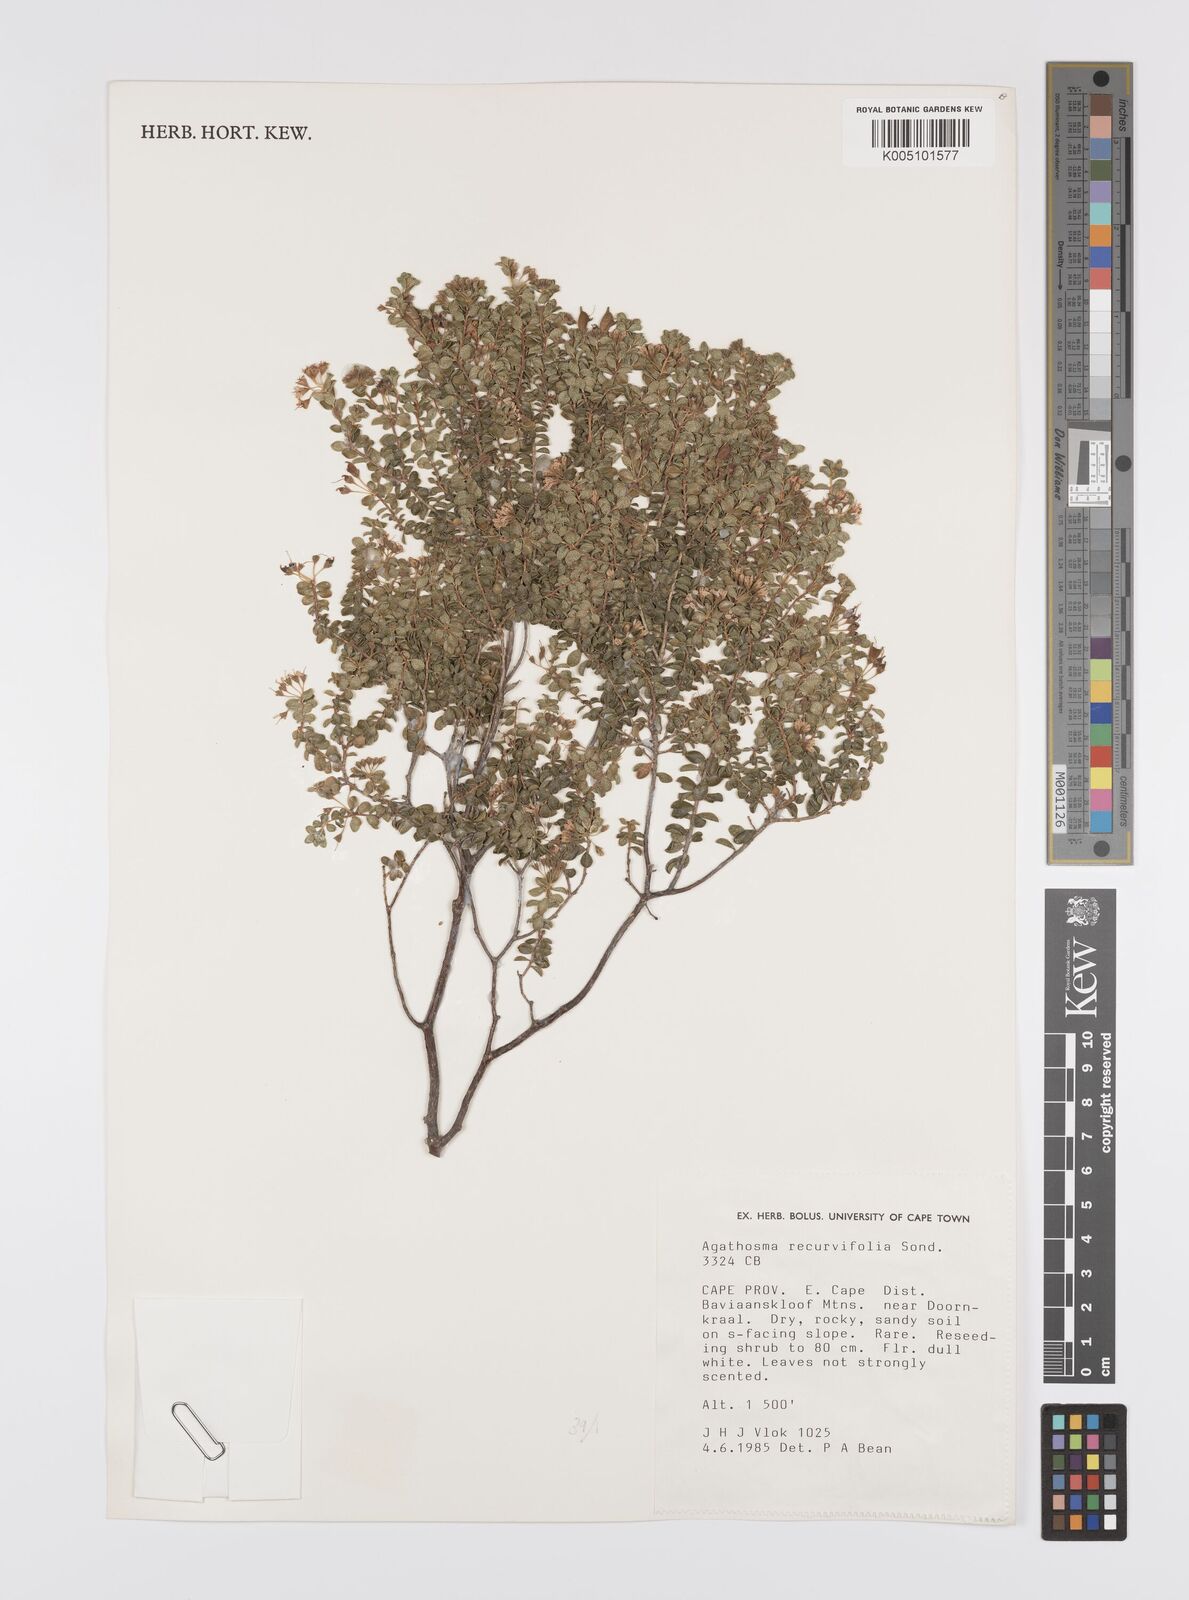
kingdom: Plantae
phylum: Tracheophyta
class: Magnoliopsida
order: Sapindales
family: Rutaceae
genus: Agathosma
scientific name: Agathosma recurvifolia
